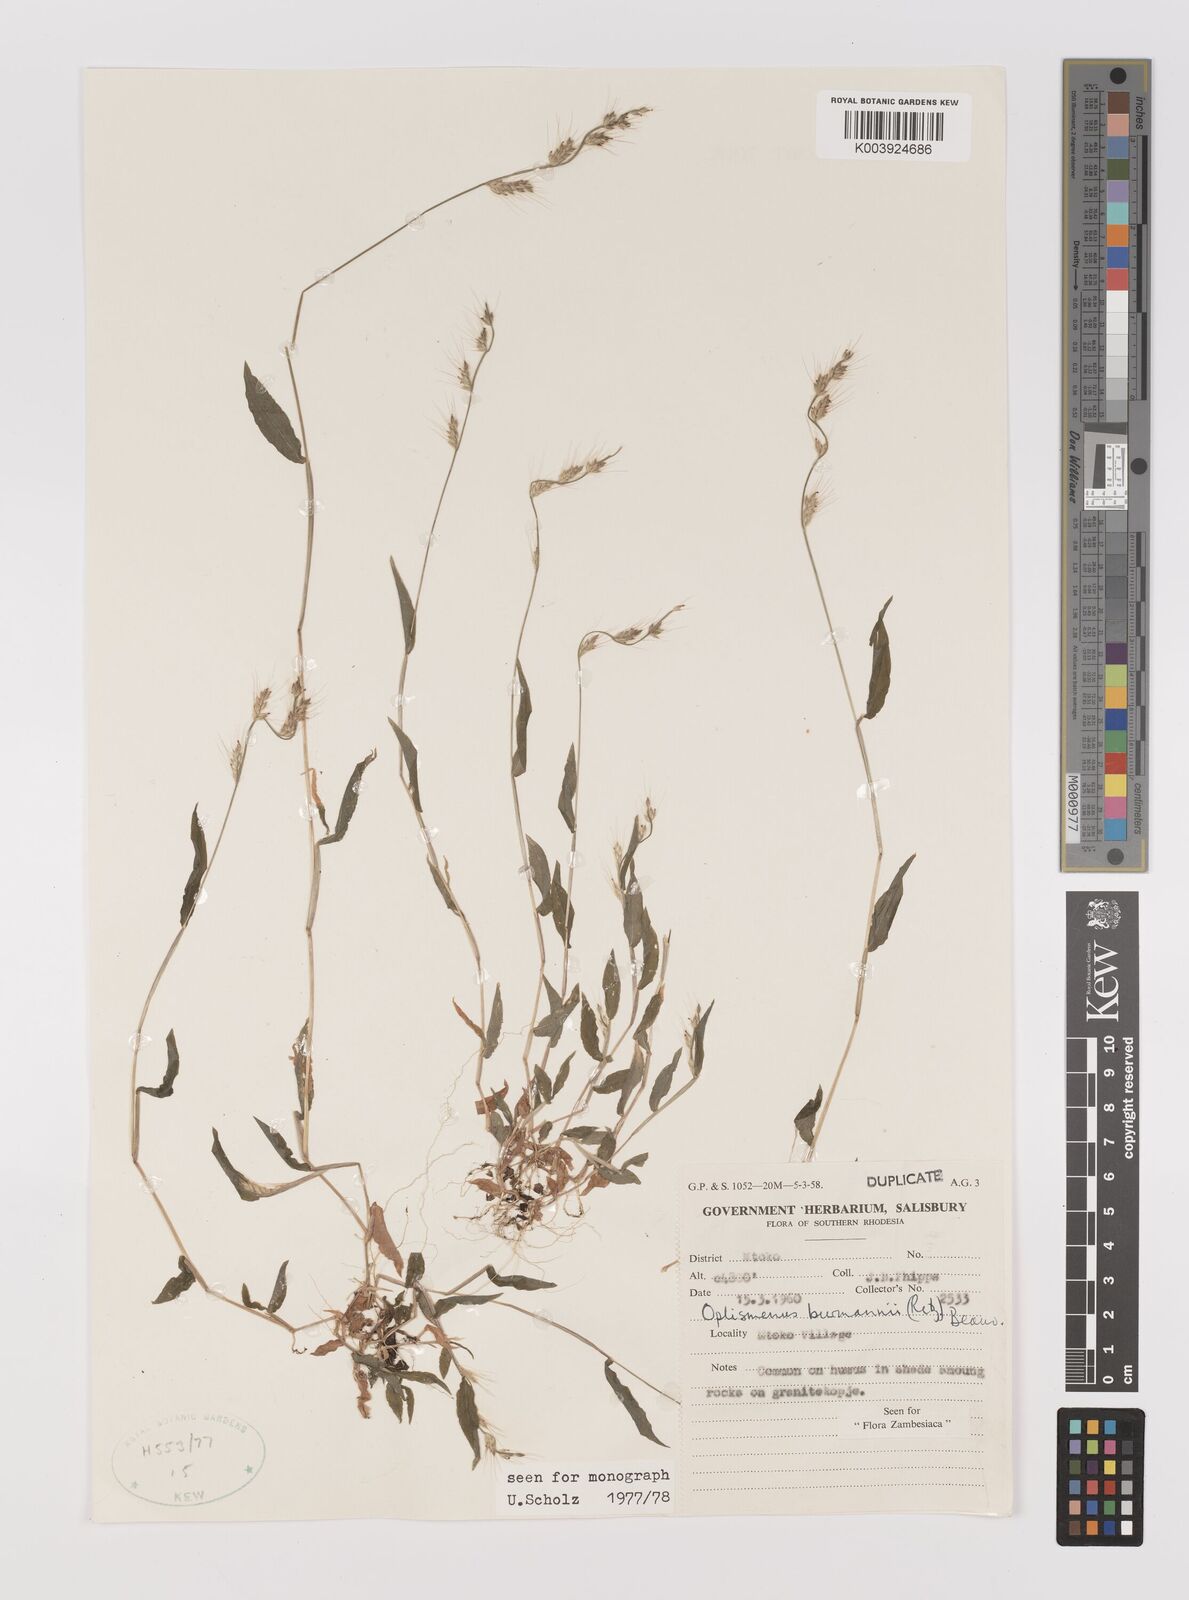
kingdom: Plantae
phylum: Tracheophyta
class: Liliopsida
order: Poales
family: Poaceae
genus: Oplismenus
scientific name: Oplismenus burmanni
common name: Burmann's basketgrass
